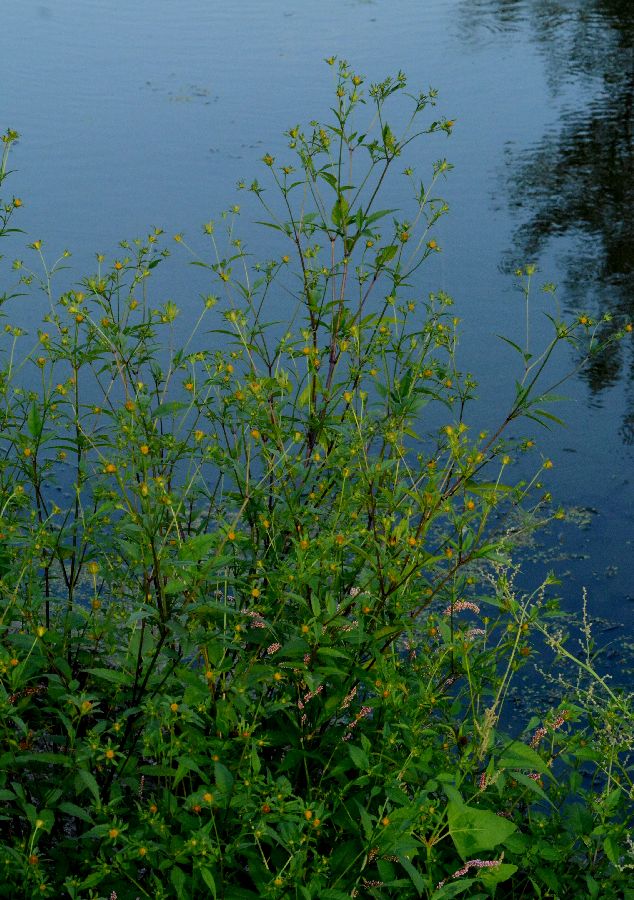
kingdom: Plantae
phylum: Tracheophyta
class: Magnoliopsida
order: Asterales
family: Asteraceae
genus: Bidens
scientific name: Bidens frondosa
